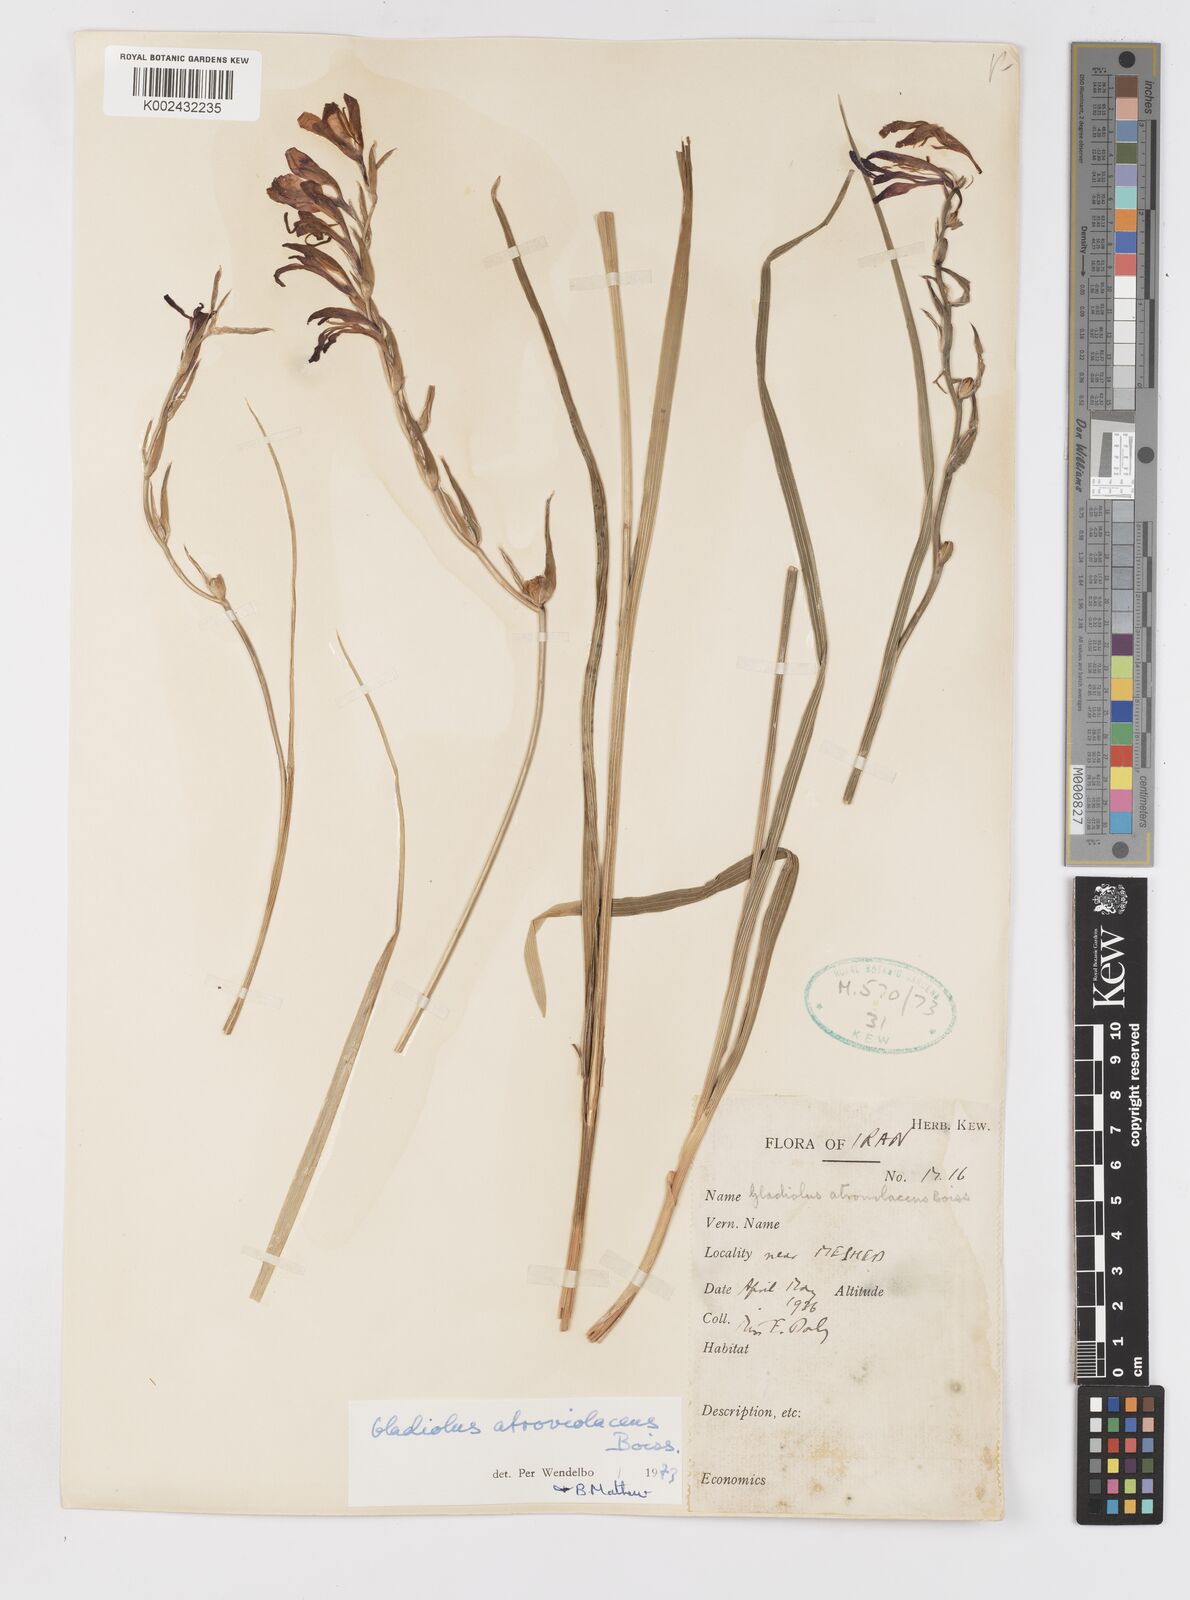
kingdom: Plantae
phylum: Tracheophyta
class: Liliopsida
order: Asparagales
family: Iridaceae
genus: Gladiolus
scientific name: Gladiolus atroviolaceus
